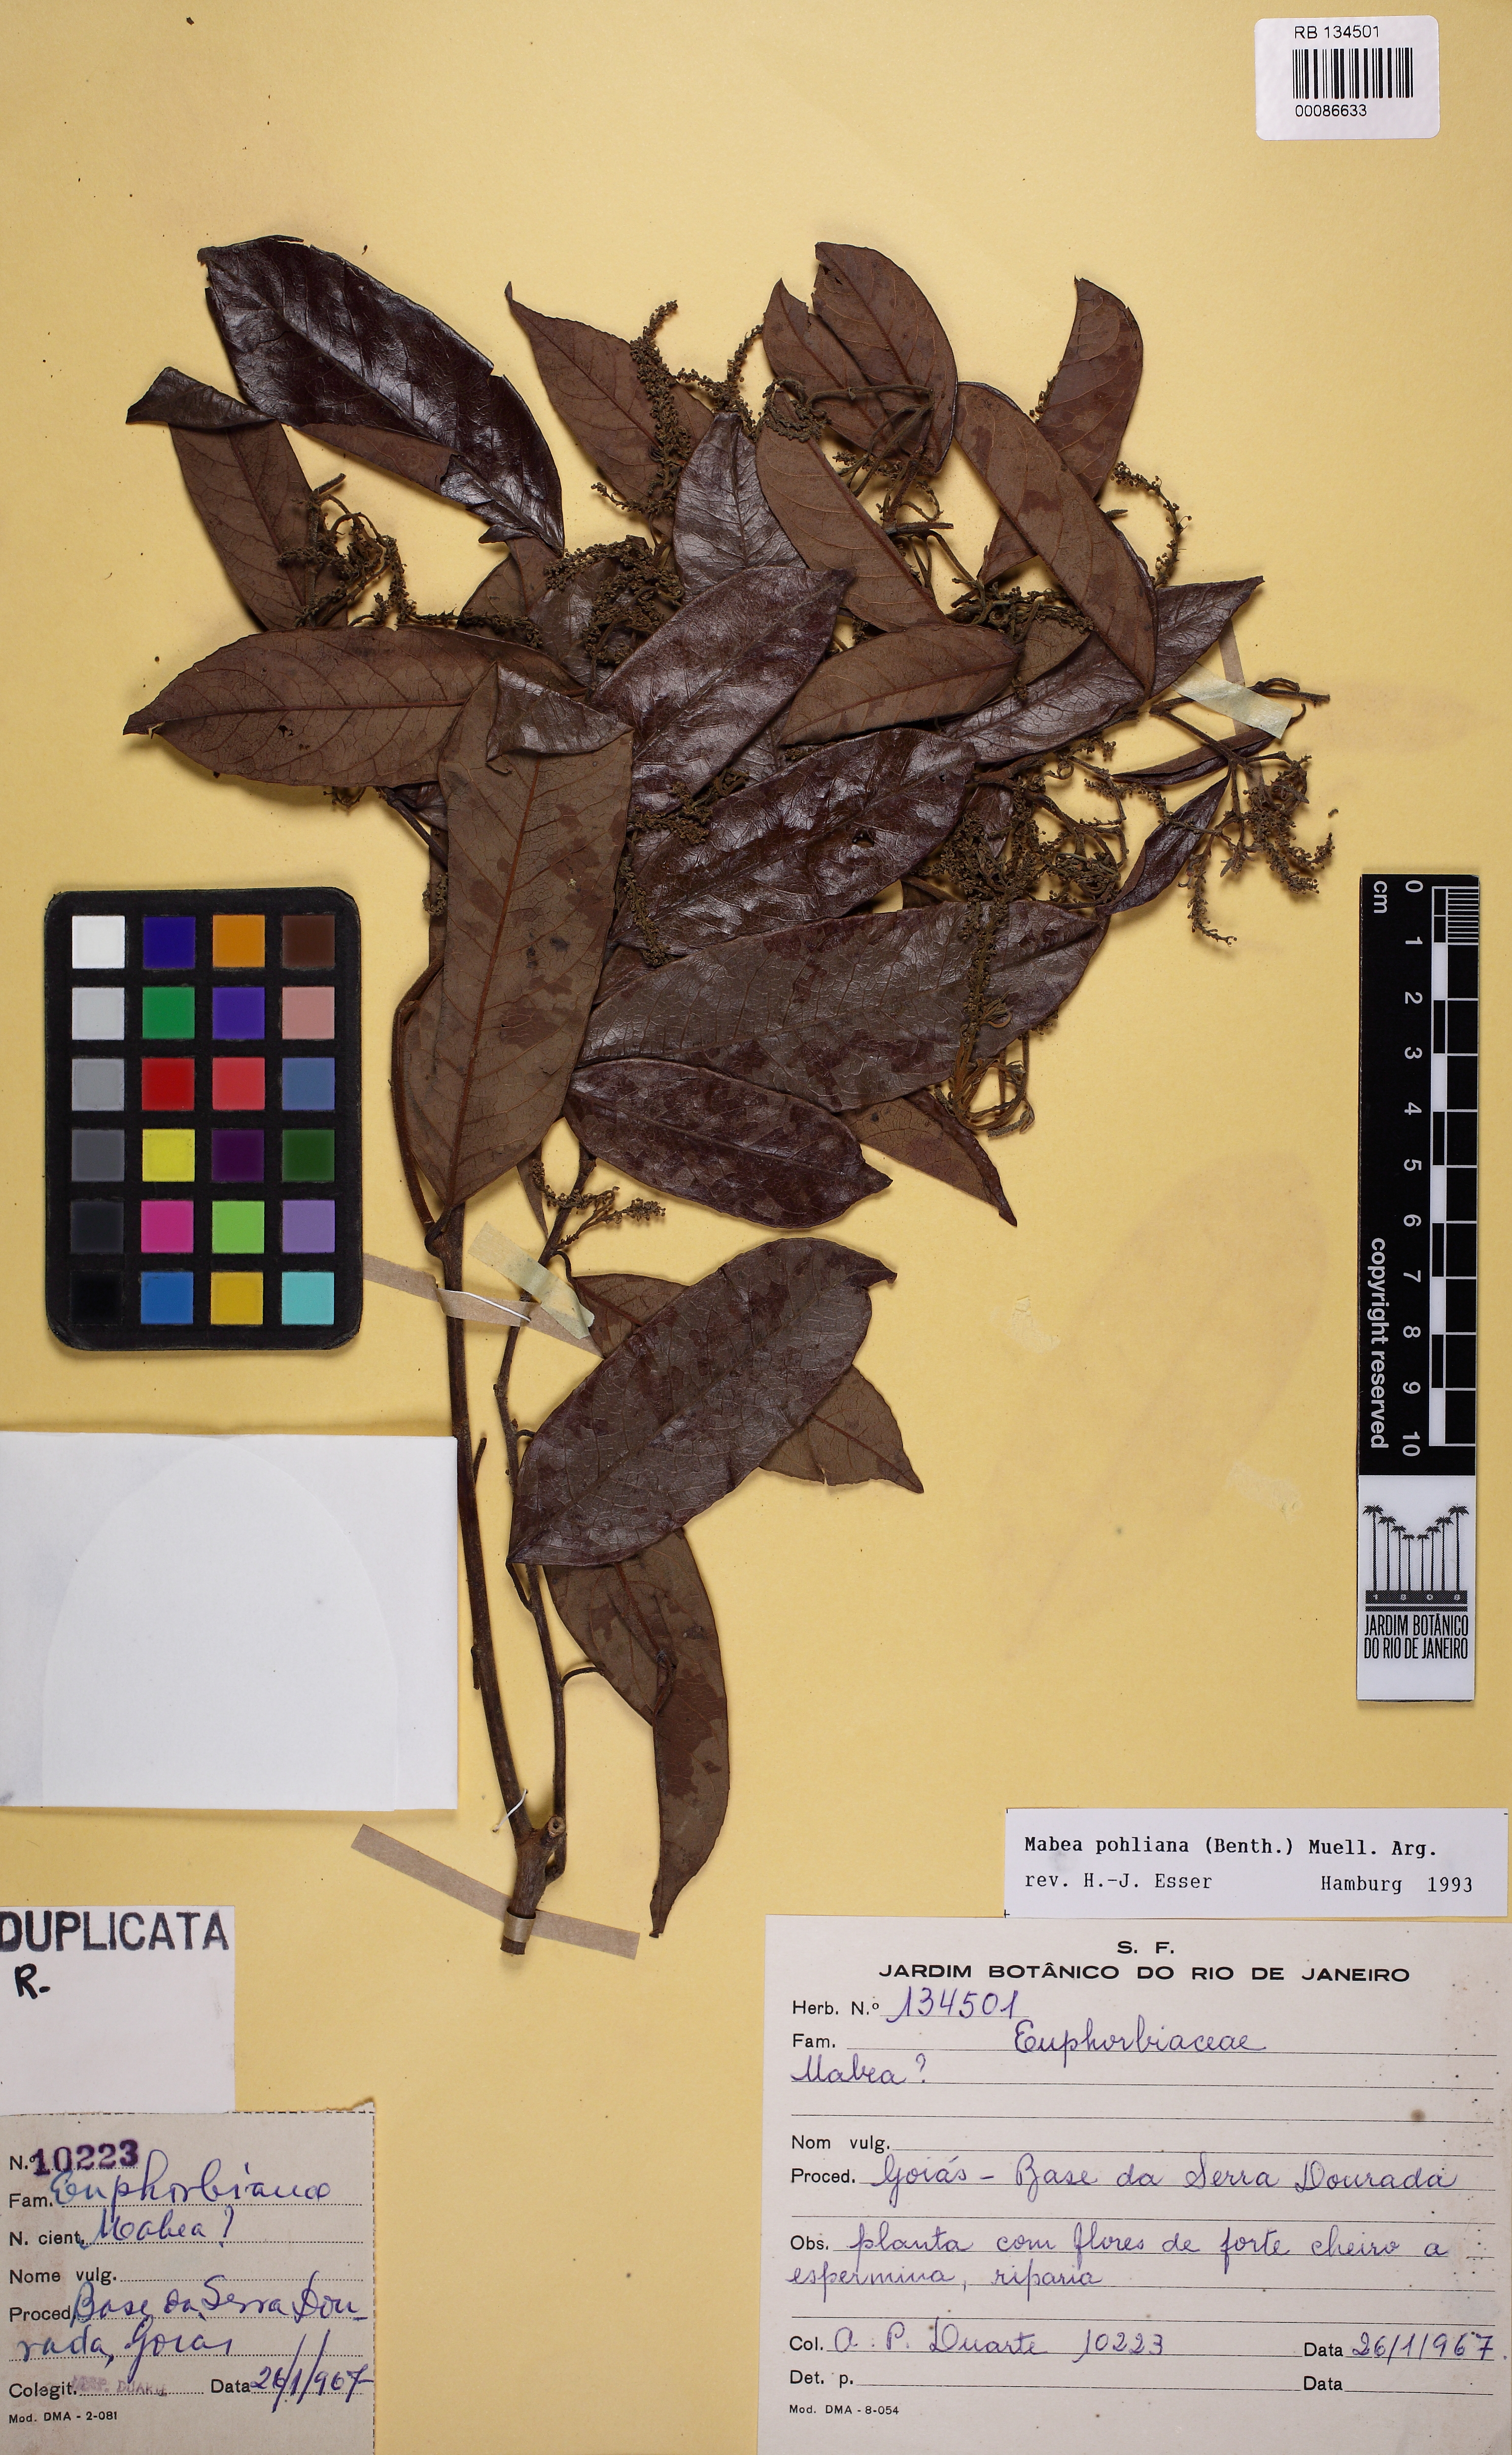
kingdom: Plantae
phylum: Tracheophyta
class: Magnoliopsida
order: Malpighiales
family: Euphorbiaceae
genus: Mabea
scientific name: Mabea pohliana
